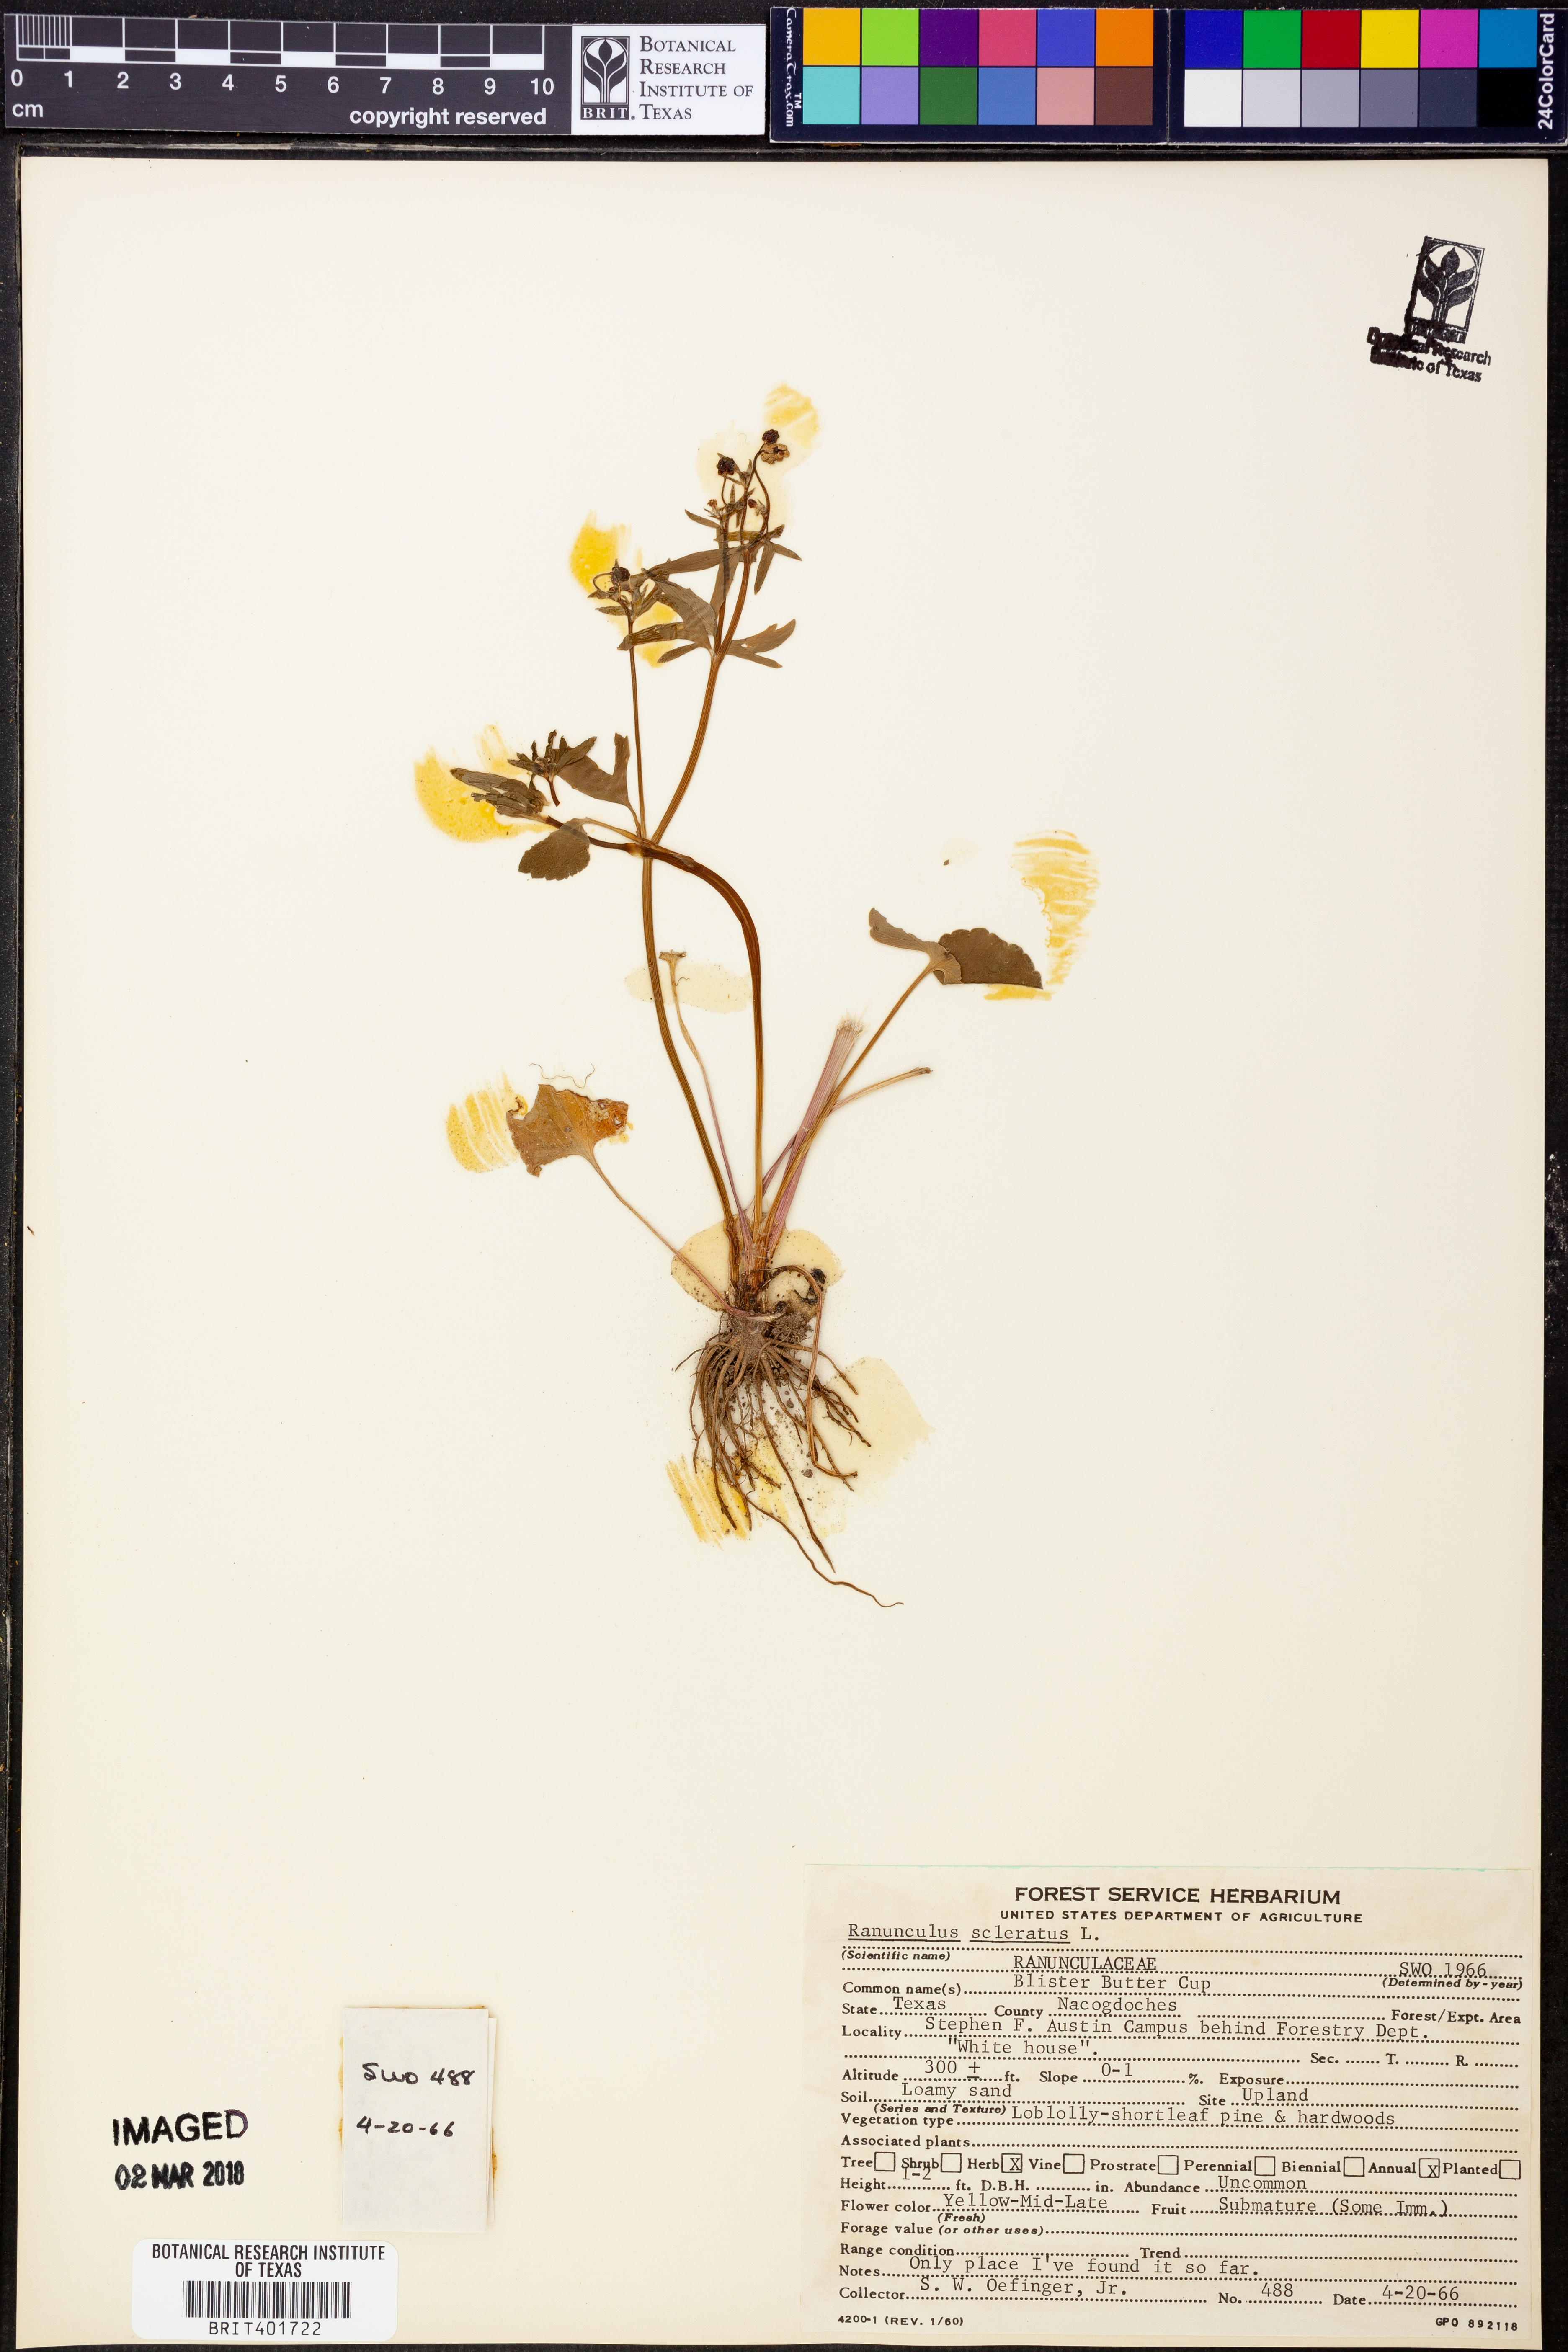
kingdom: Plantae
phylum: Tracheophyta
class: Magnoliopsida
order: Ranunculales
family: Ranunculaceae
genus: Ranunculus
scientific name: Ranunculus sceleratus
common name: Celery-leaved buttercup
